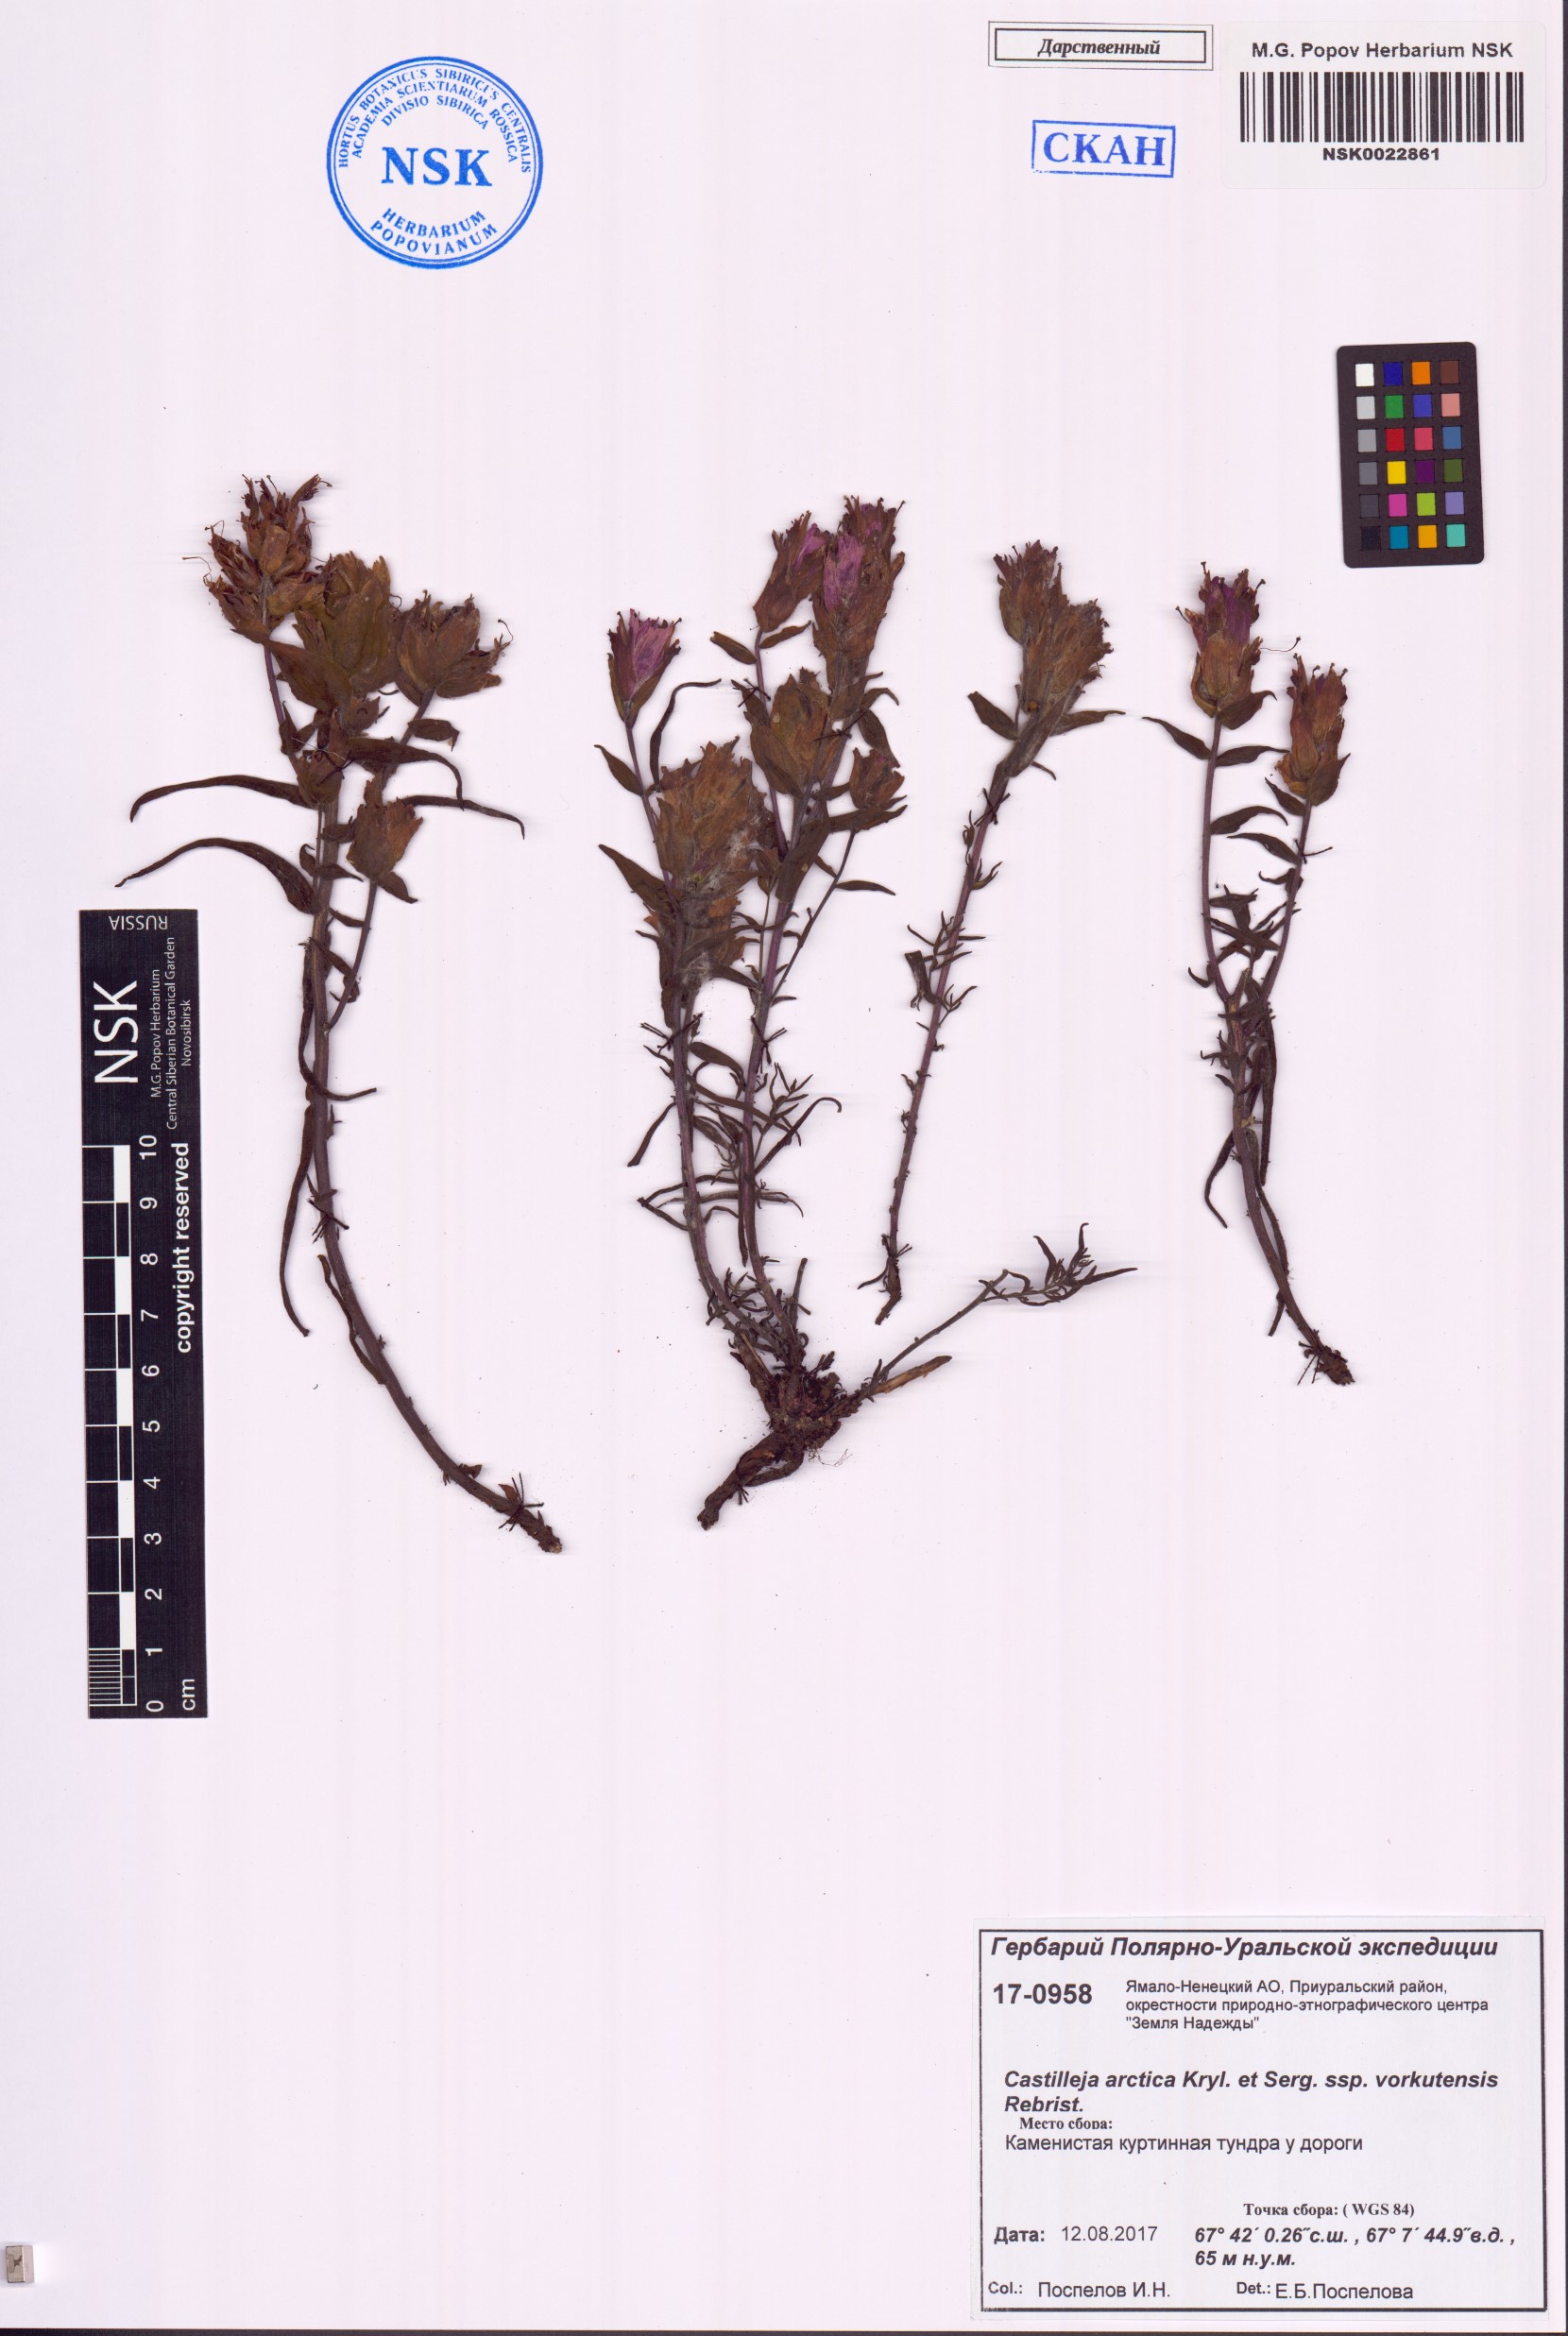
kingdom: Plantae
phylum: Tracheophyta
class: Magnoliopsida
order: Lamiales
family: Orobanchaceae
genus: Castilleja
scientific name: Castilleja arctica
